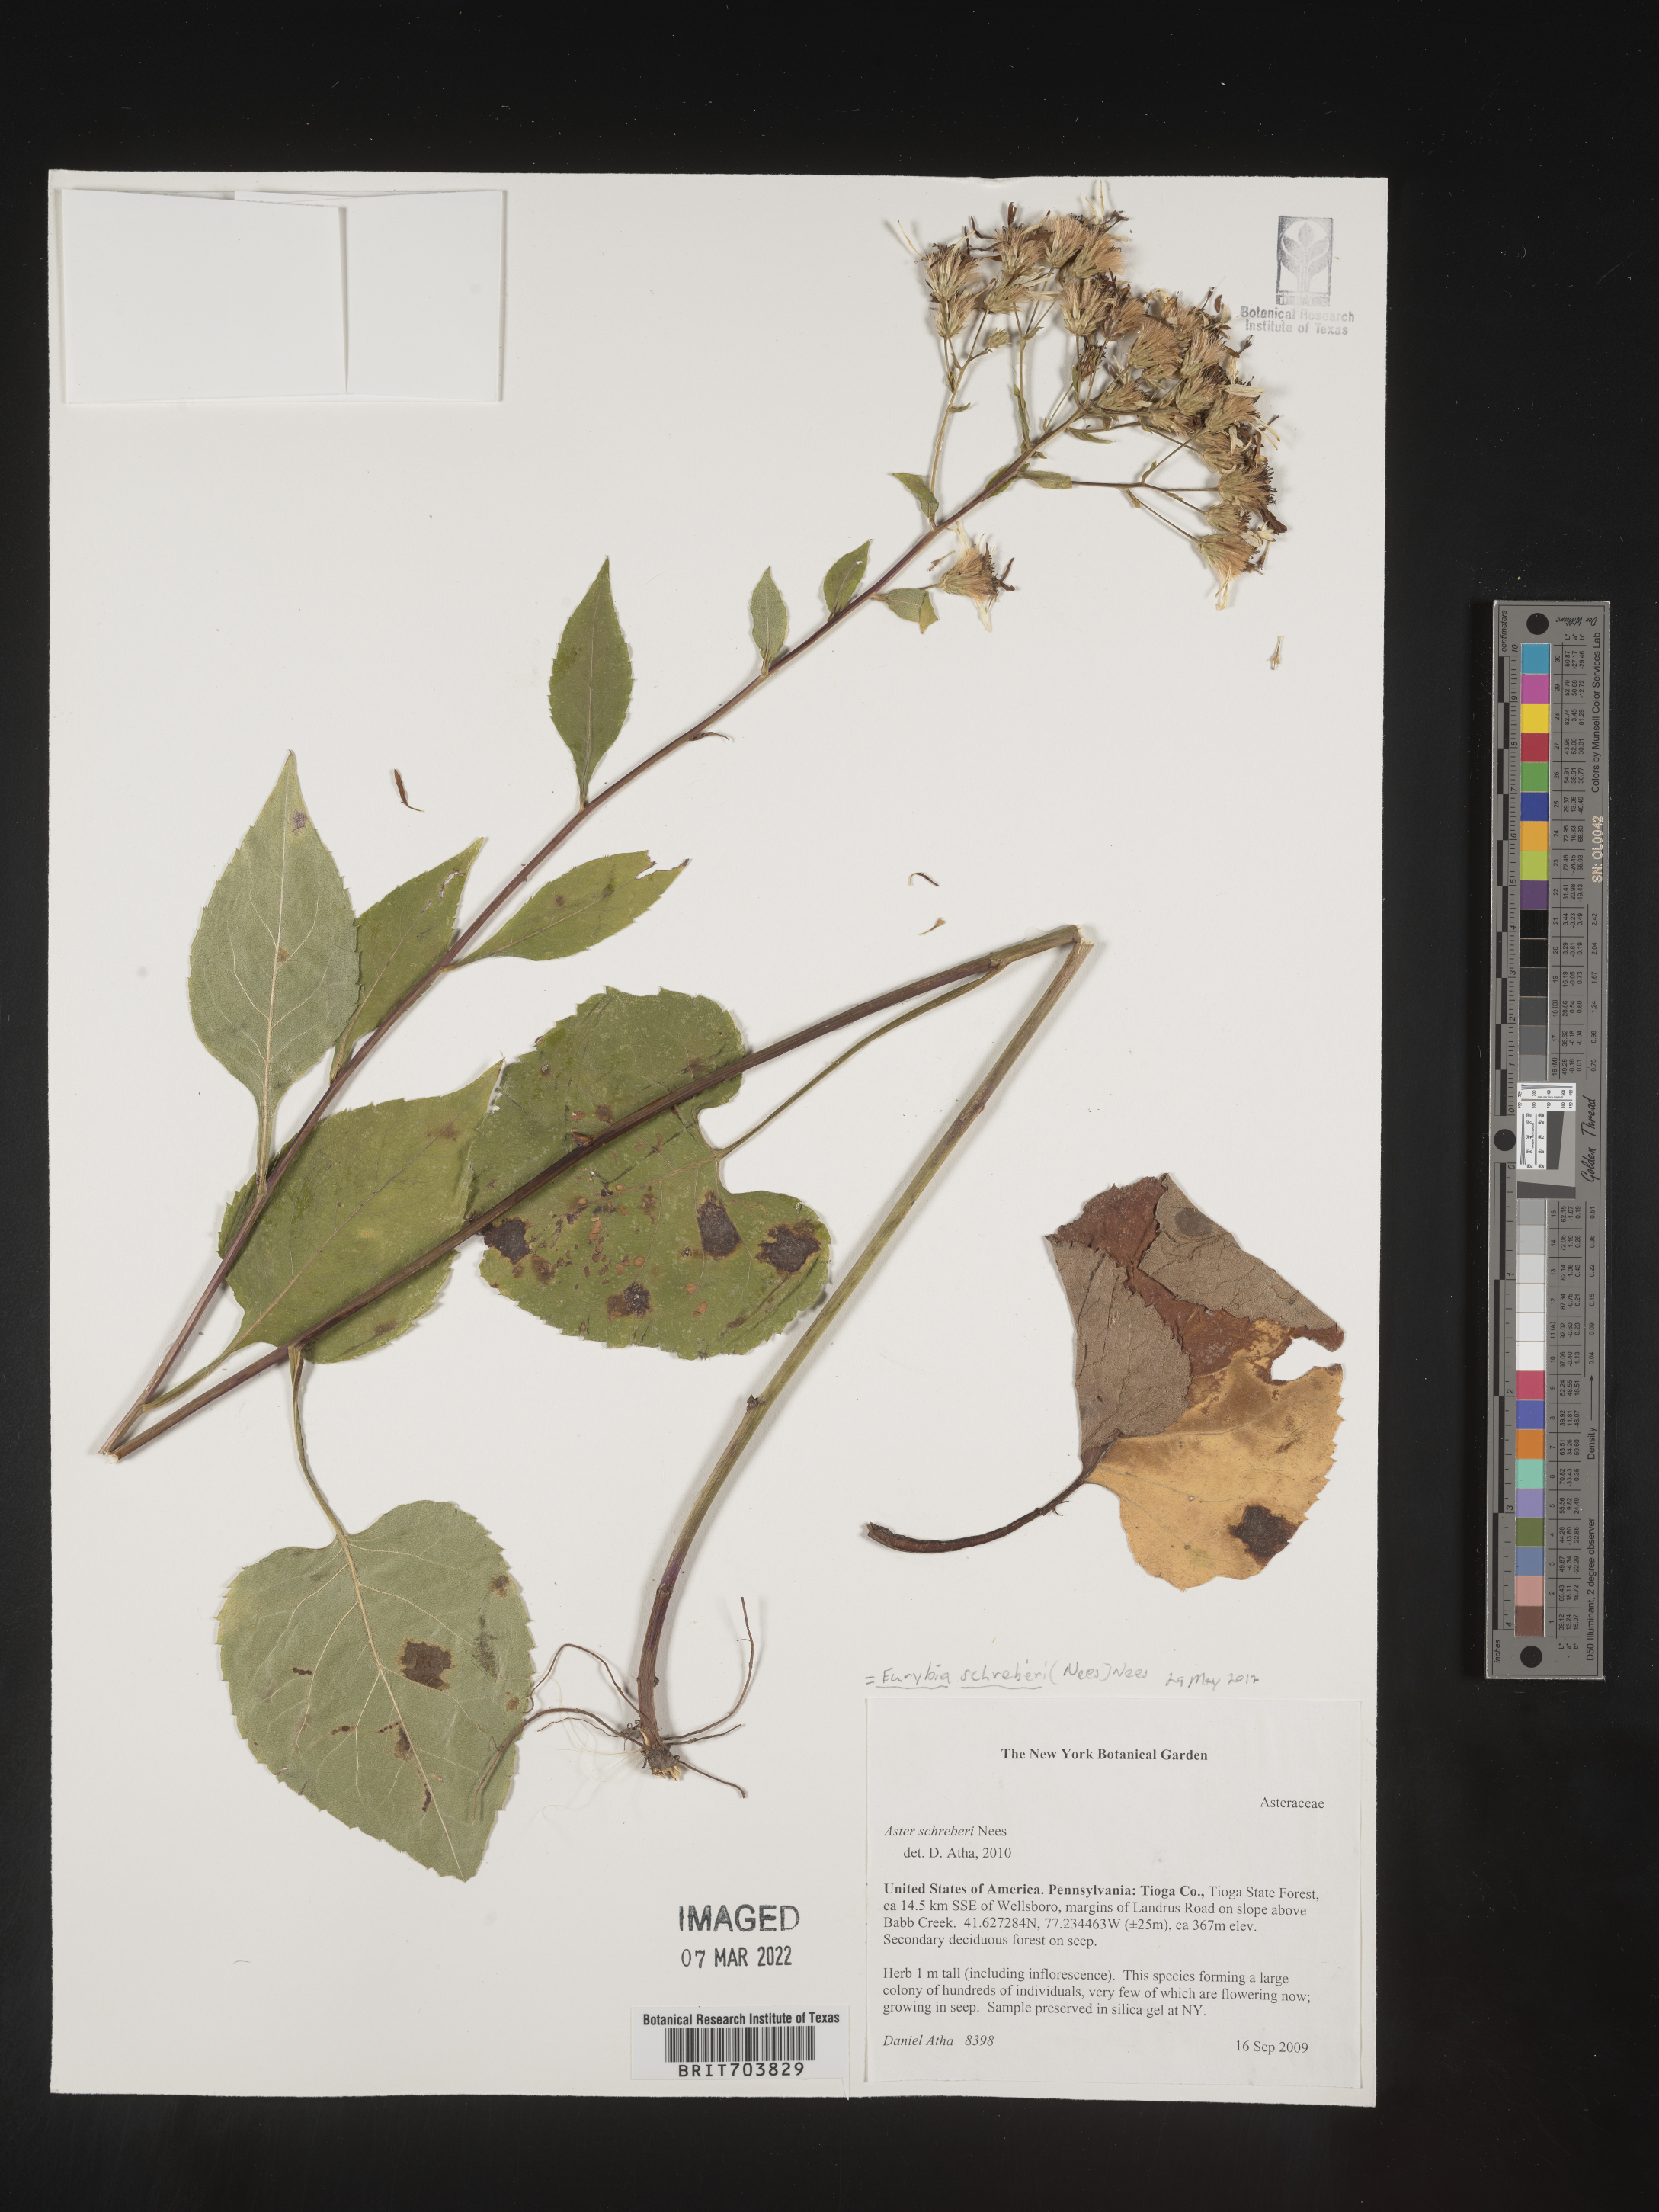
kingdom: Plantae
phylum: Tracheophyta
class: Magnoliopsida
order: Asterales
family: Asteraceae
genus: Eurybia
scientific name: Eurybia schreberi
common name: Schreber's aster
